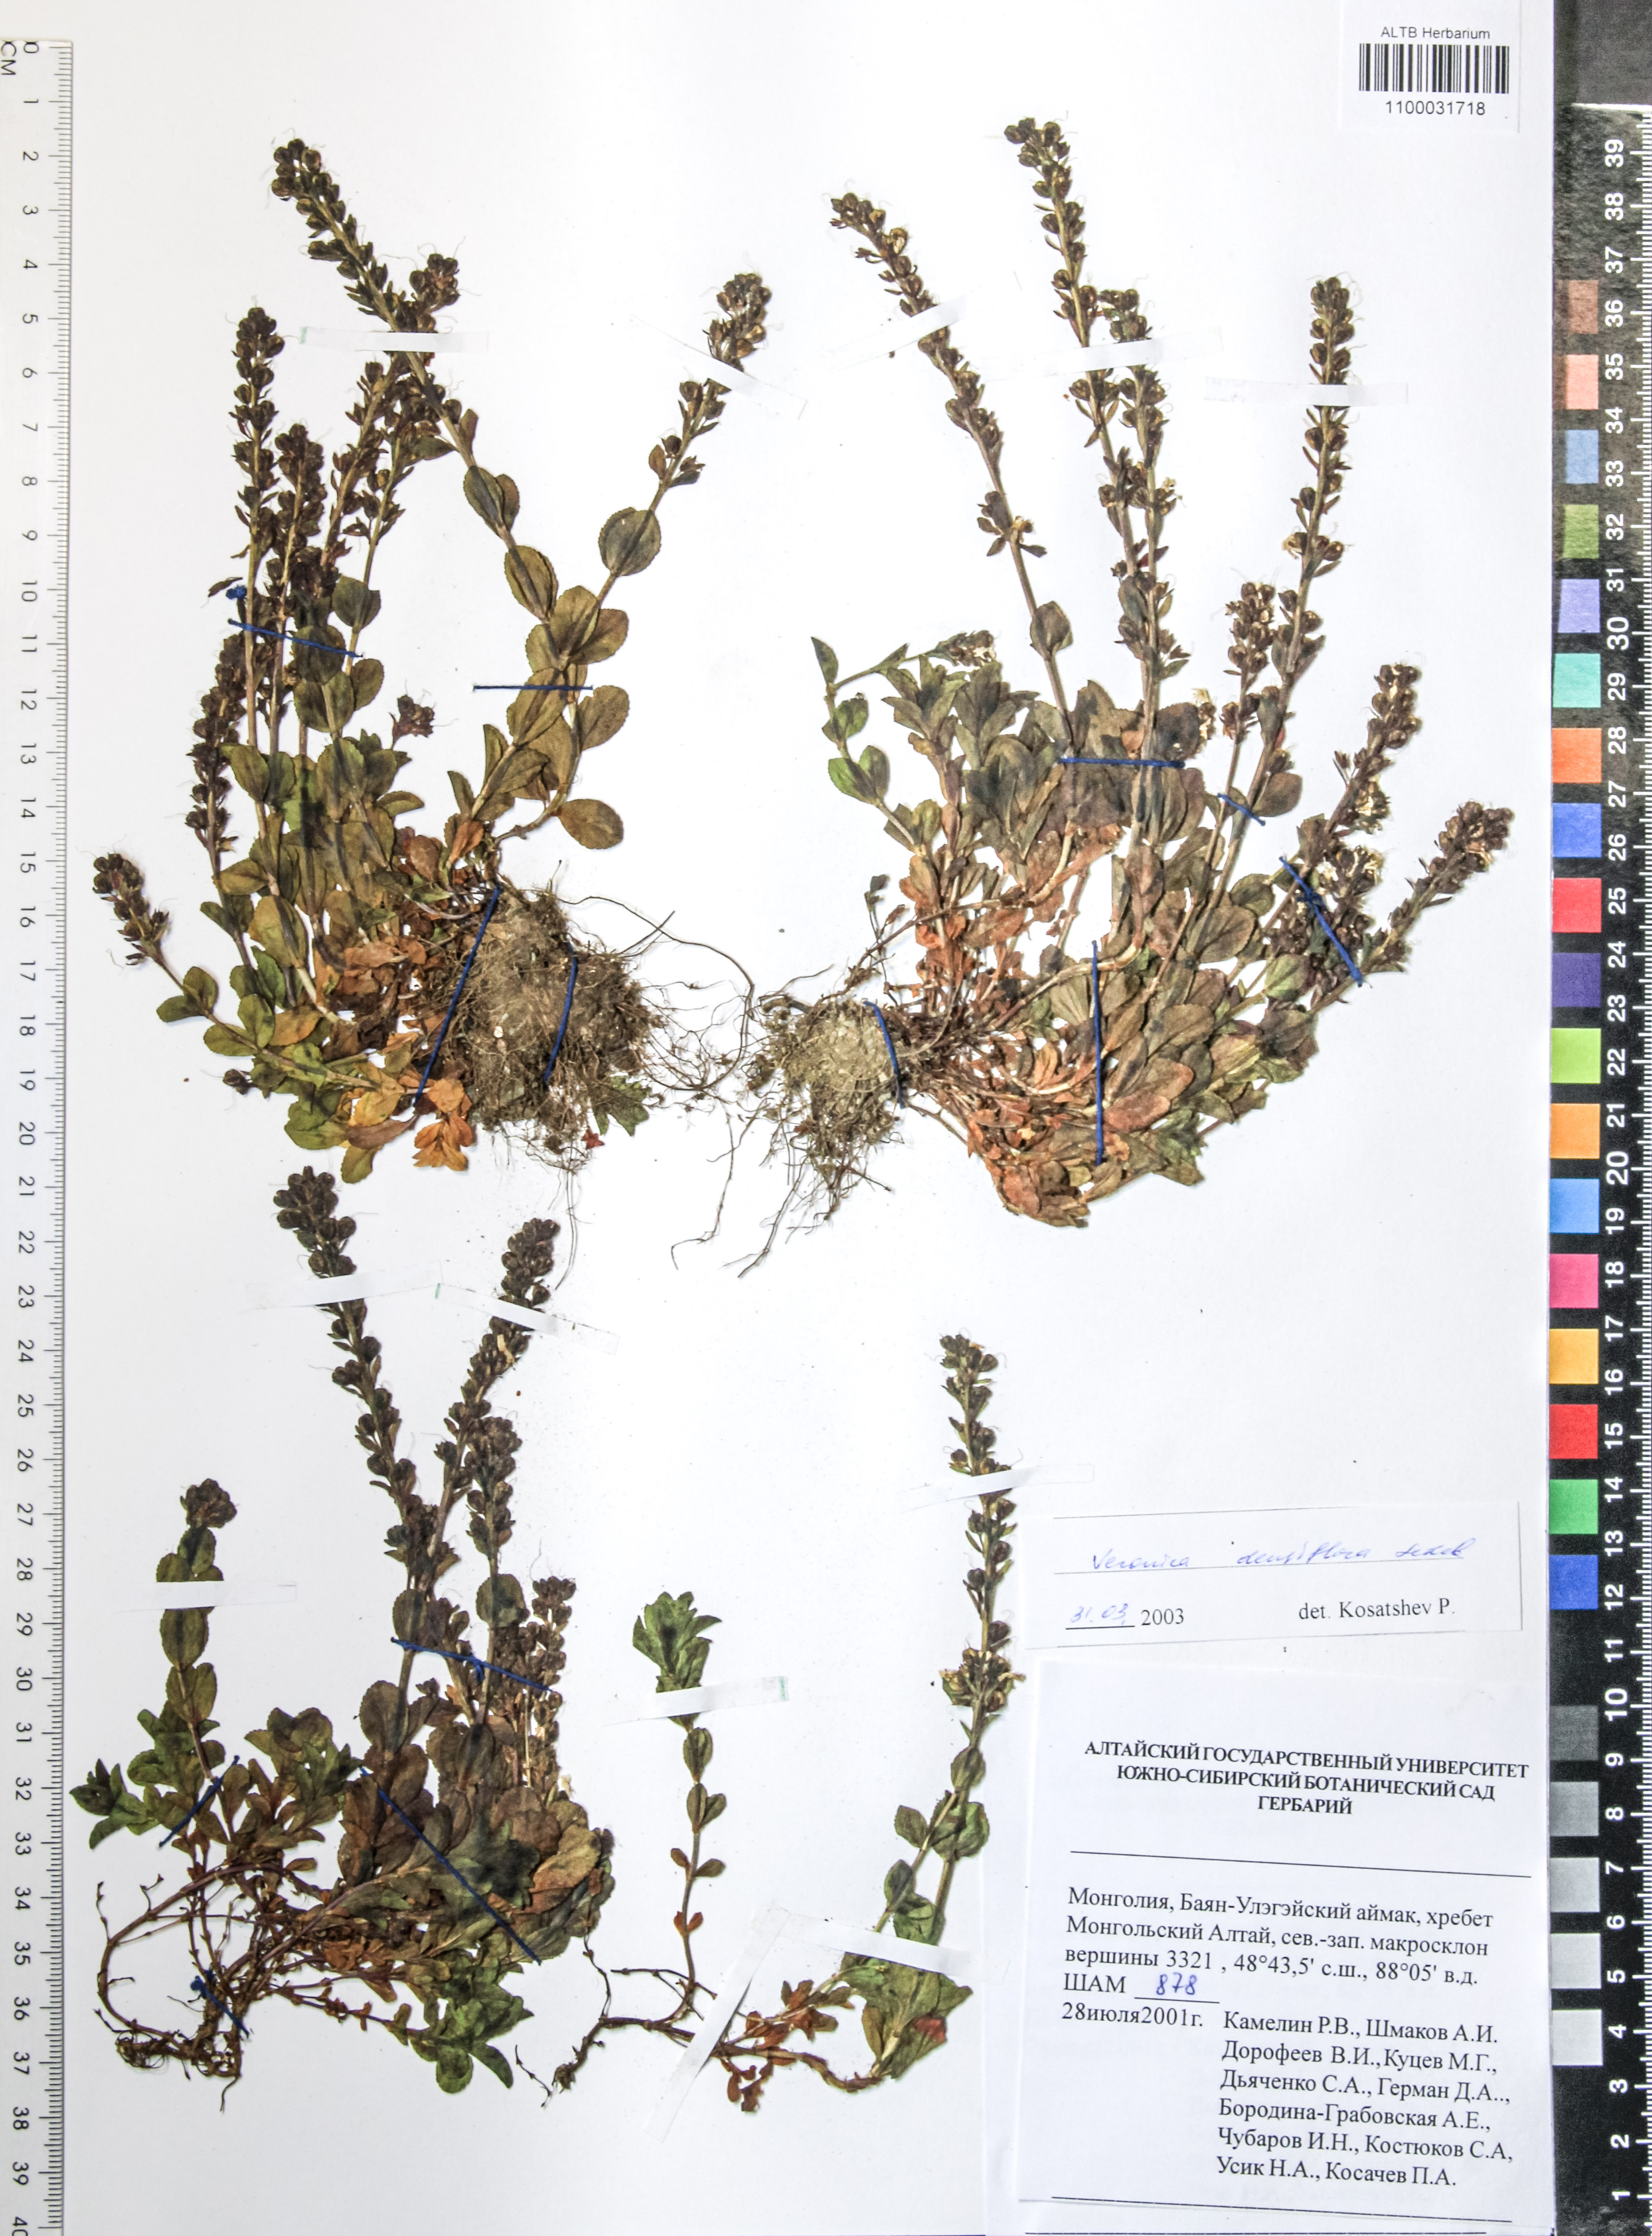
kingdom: Plantae
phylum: Tracheophyta
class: Magnoliopsida
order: Lamiales
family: Plantaginaceae
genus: Veronica
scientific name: Veronica densiflora
